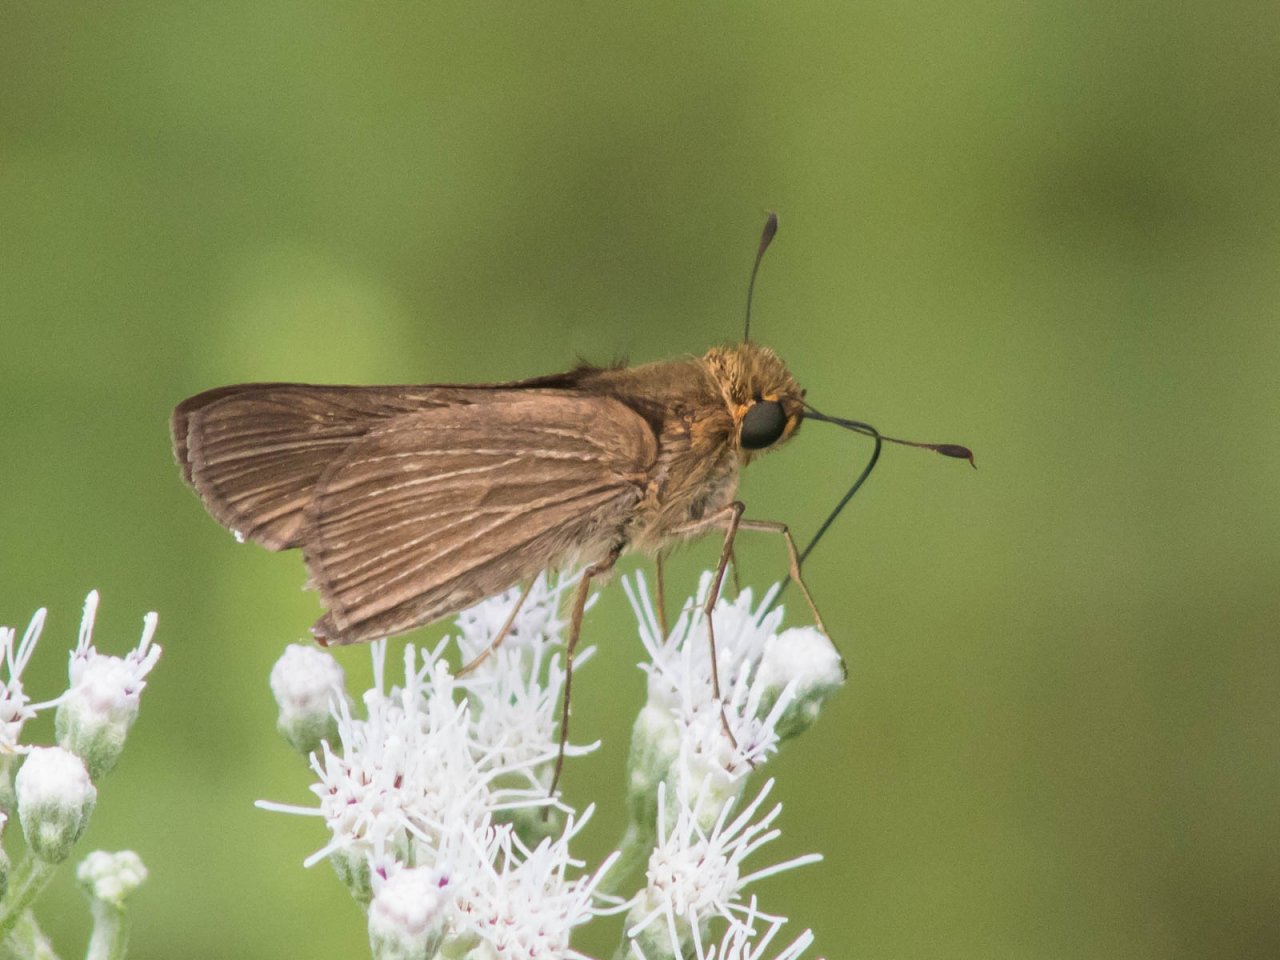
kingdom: Animalia
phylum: Arthropoda
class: Insecta
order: Lepidoptera
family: Hesperiidae
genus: Panoquina
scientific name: Panoquina ocola
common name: Ocola Skipper
